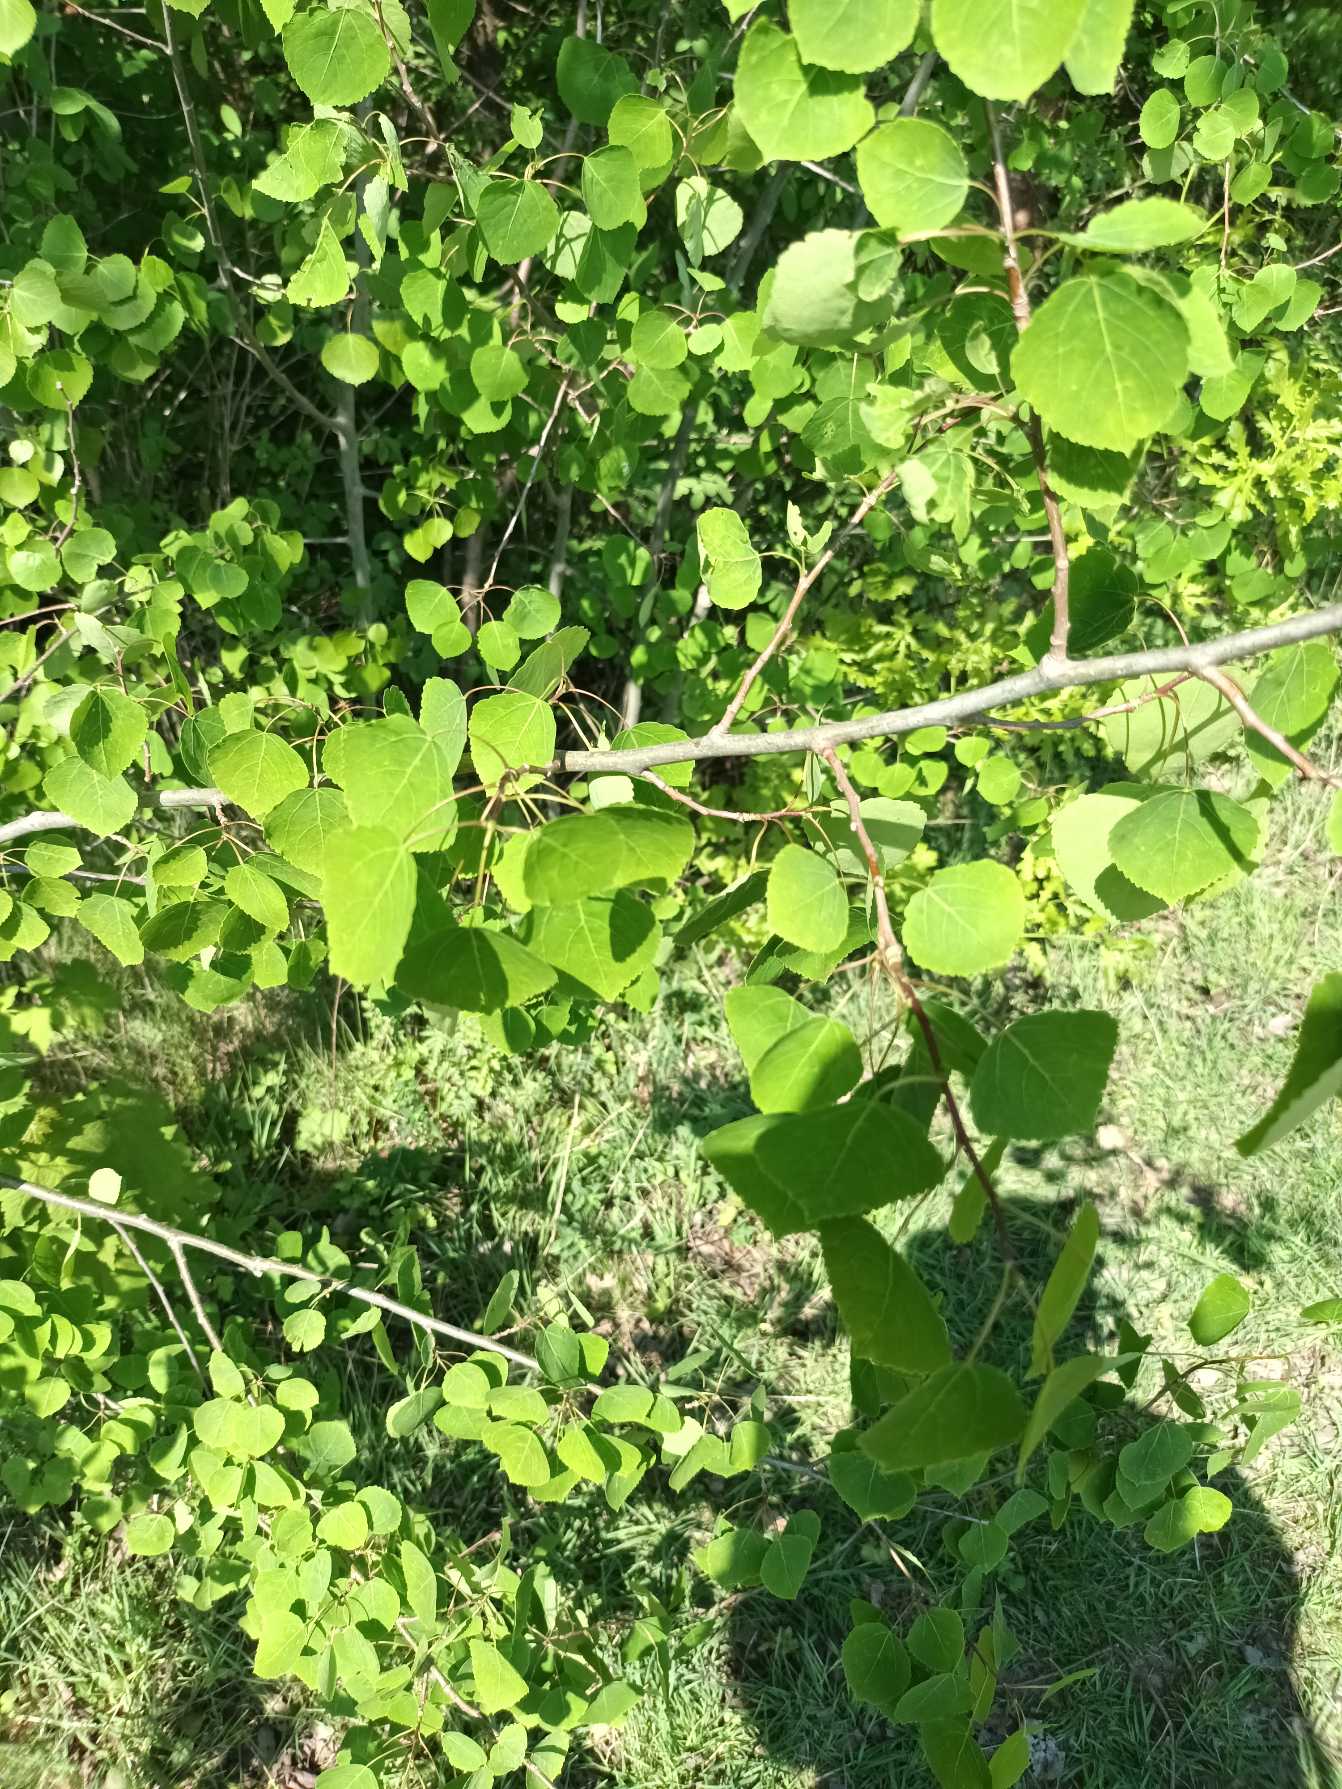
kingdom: Plantae
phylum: Tracheophyta
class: Magnoliopsida
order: Malpighiales
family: Salicaceae
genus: Populus
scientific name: Populus tremula
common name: Bævreasp
